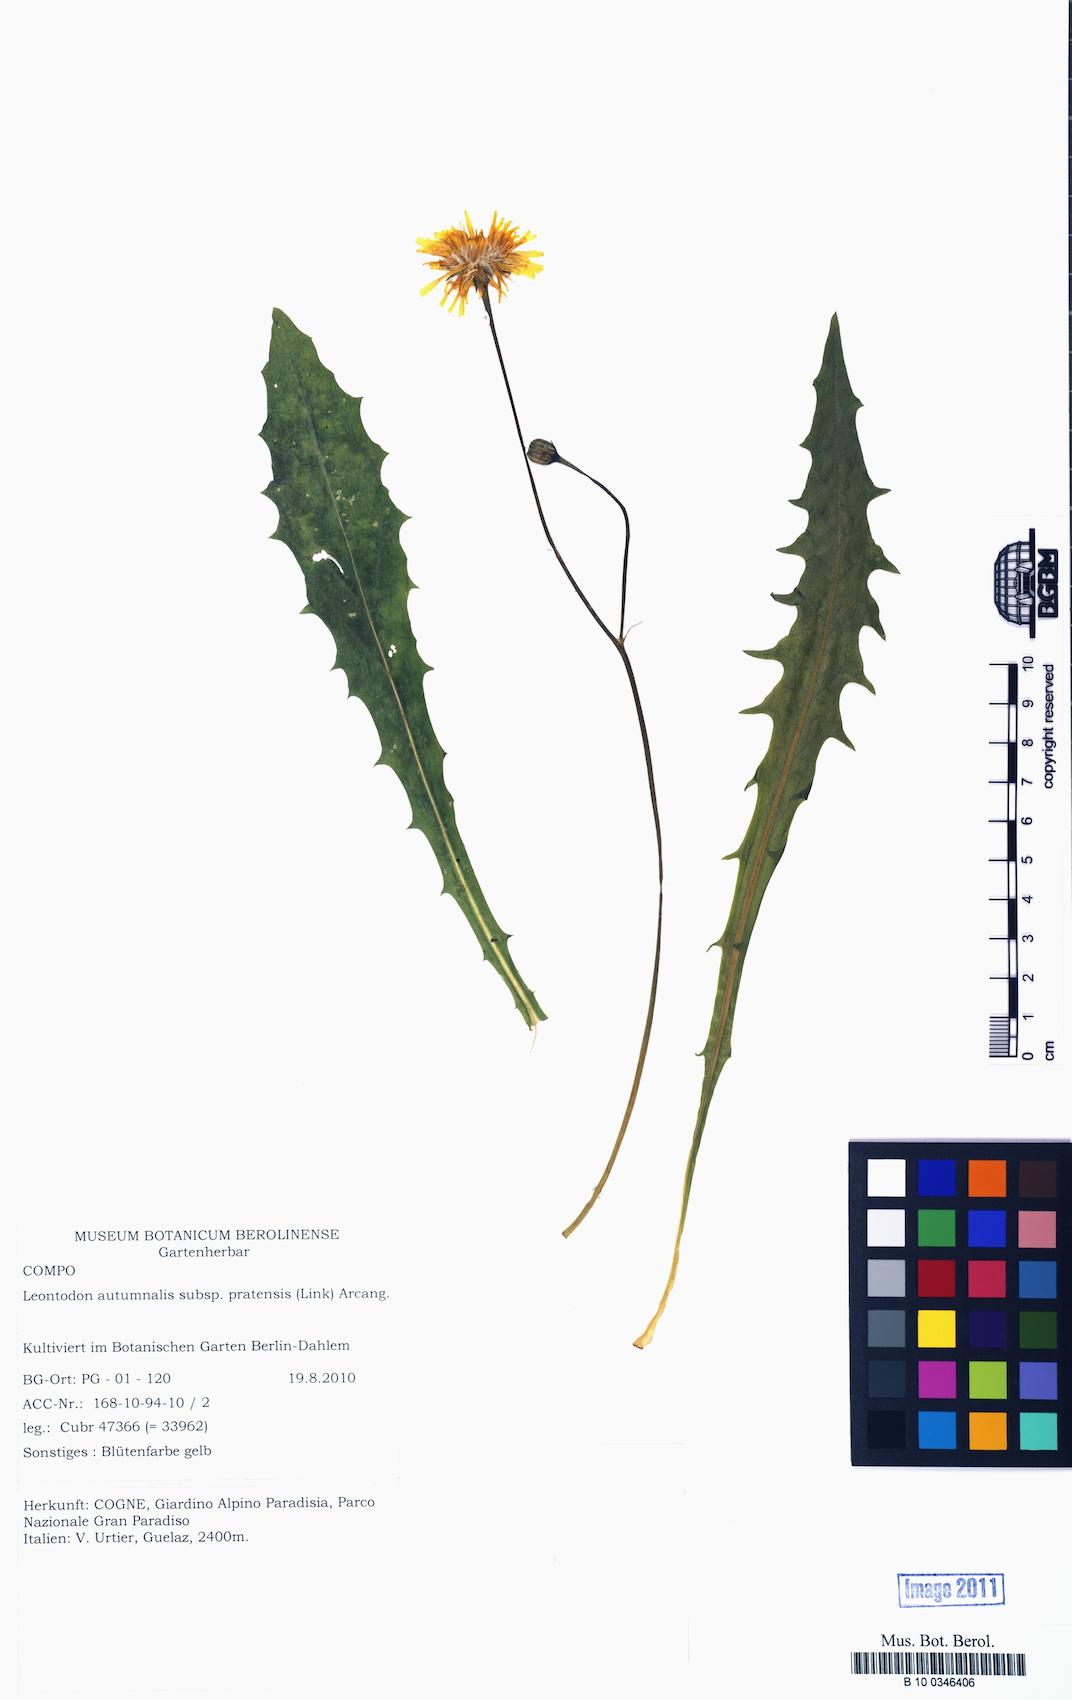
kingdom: Plantae
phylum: Tracheophyta
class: Magnoliopsida
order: Asterales
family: Asteraceae
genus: Scorzoneroides
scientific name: Scorzoneroides autumnalis
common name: Autumn hawkbit
